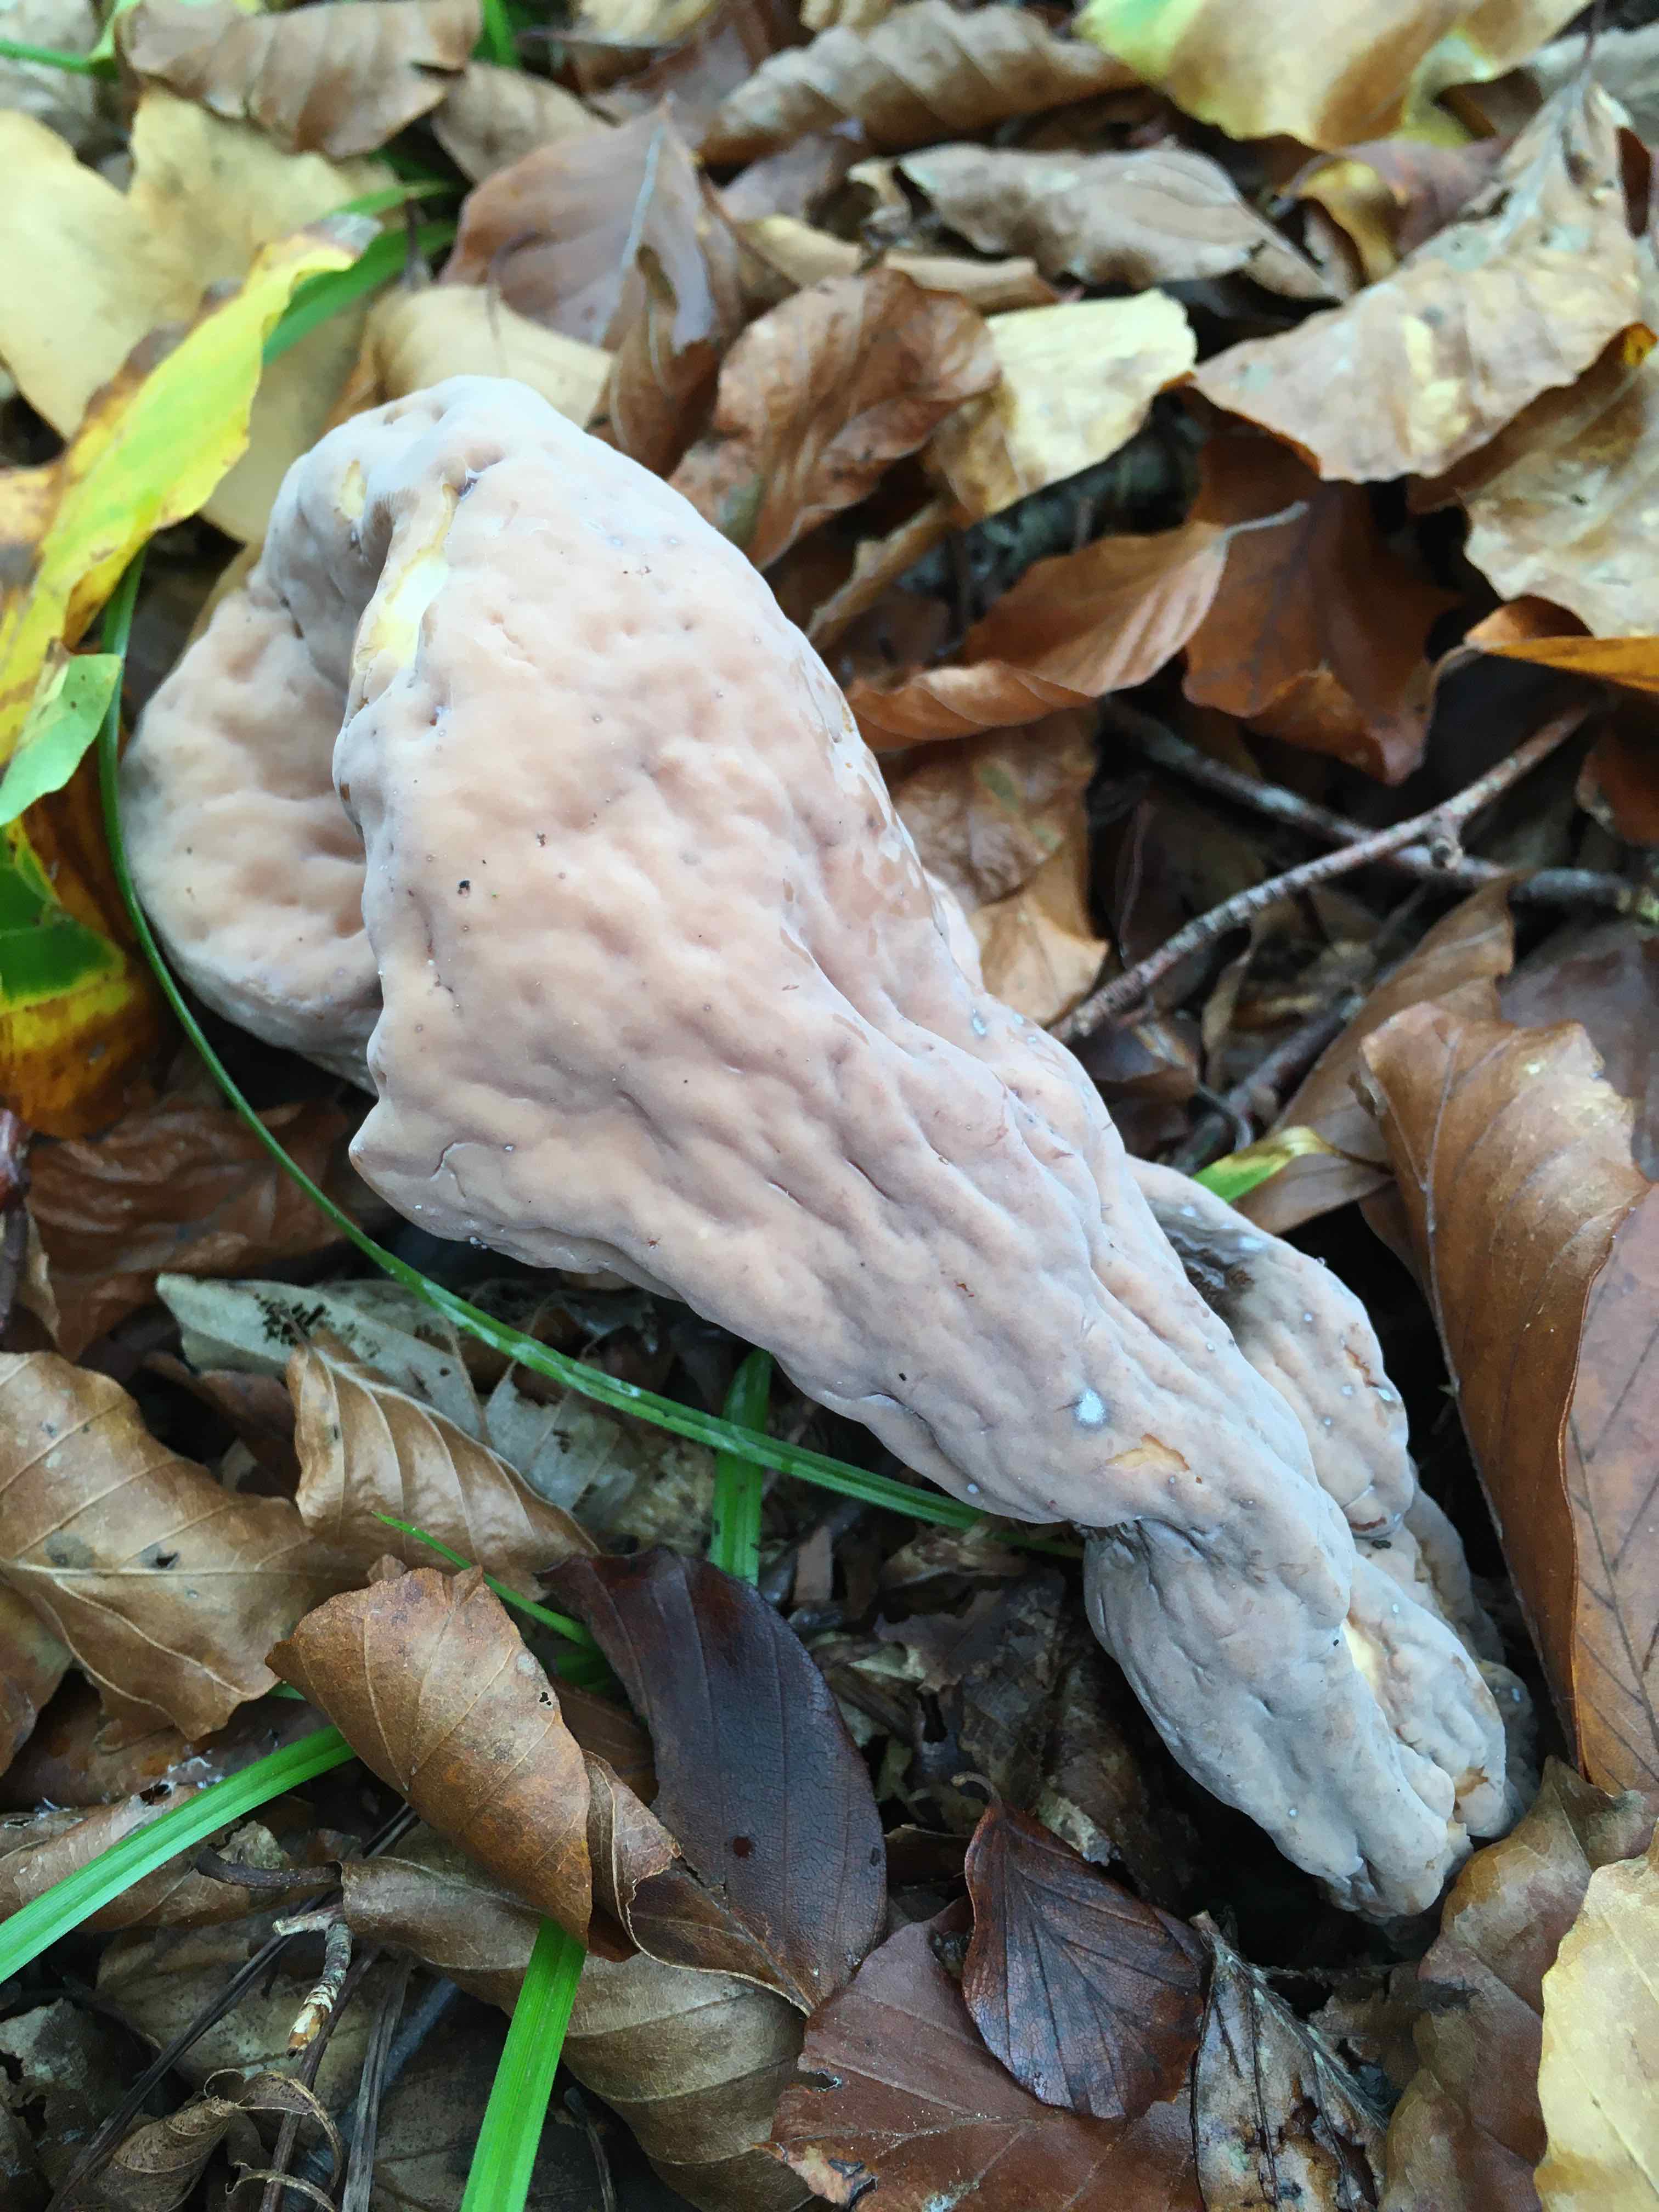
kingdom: Fungi
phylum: Basidiomycota
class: Agaricomycetes
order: Gomphales
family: Clavariadelphaceae
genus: Clavariadelphus
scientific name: Clavariadelphus pistillaris
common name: herkules-kæmpekølle
